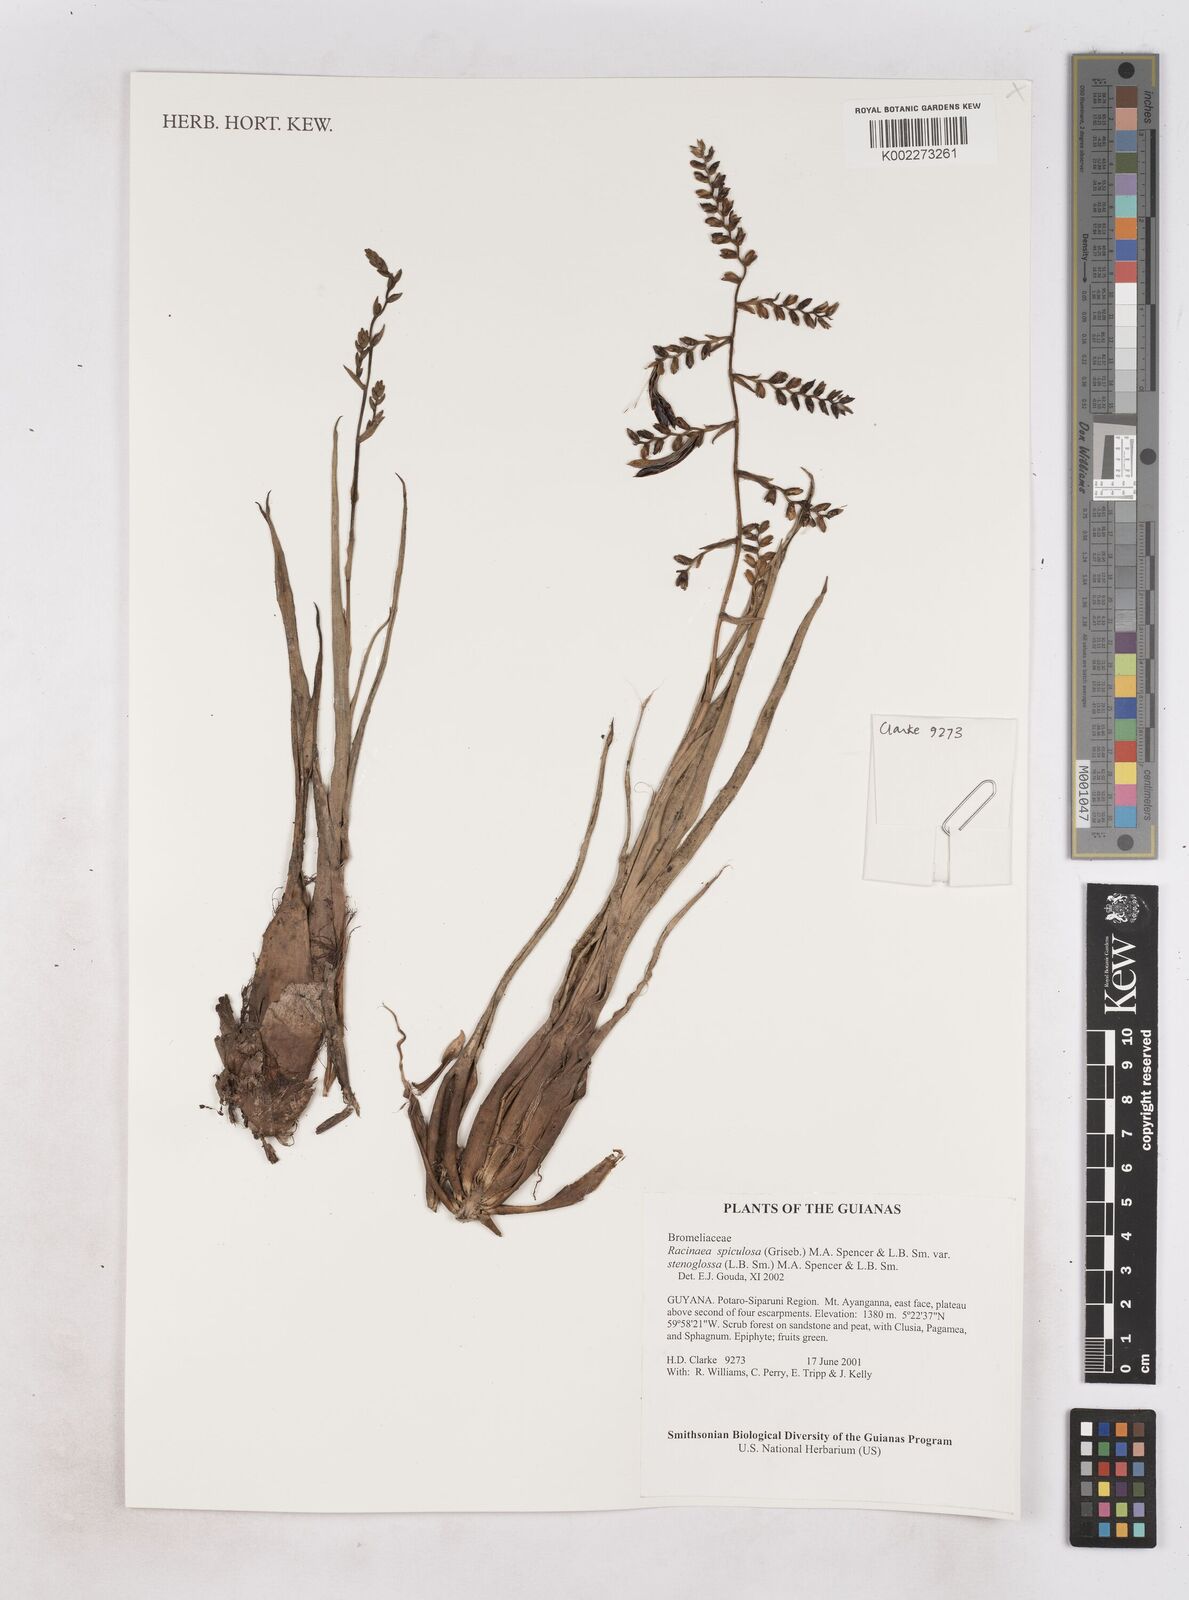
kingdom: Plantae
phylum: Tracheophyta
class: Liliopsida
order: Poales
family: Bromeliaceae
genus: Racinaea
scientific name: Racinaea spiculosa
